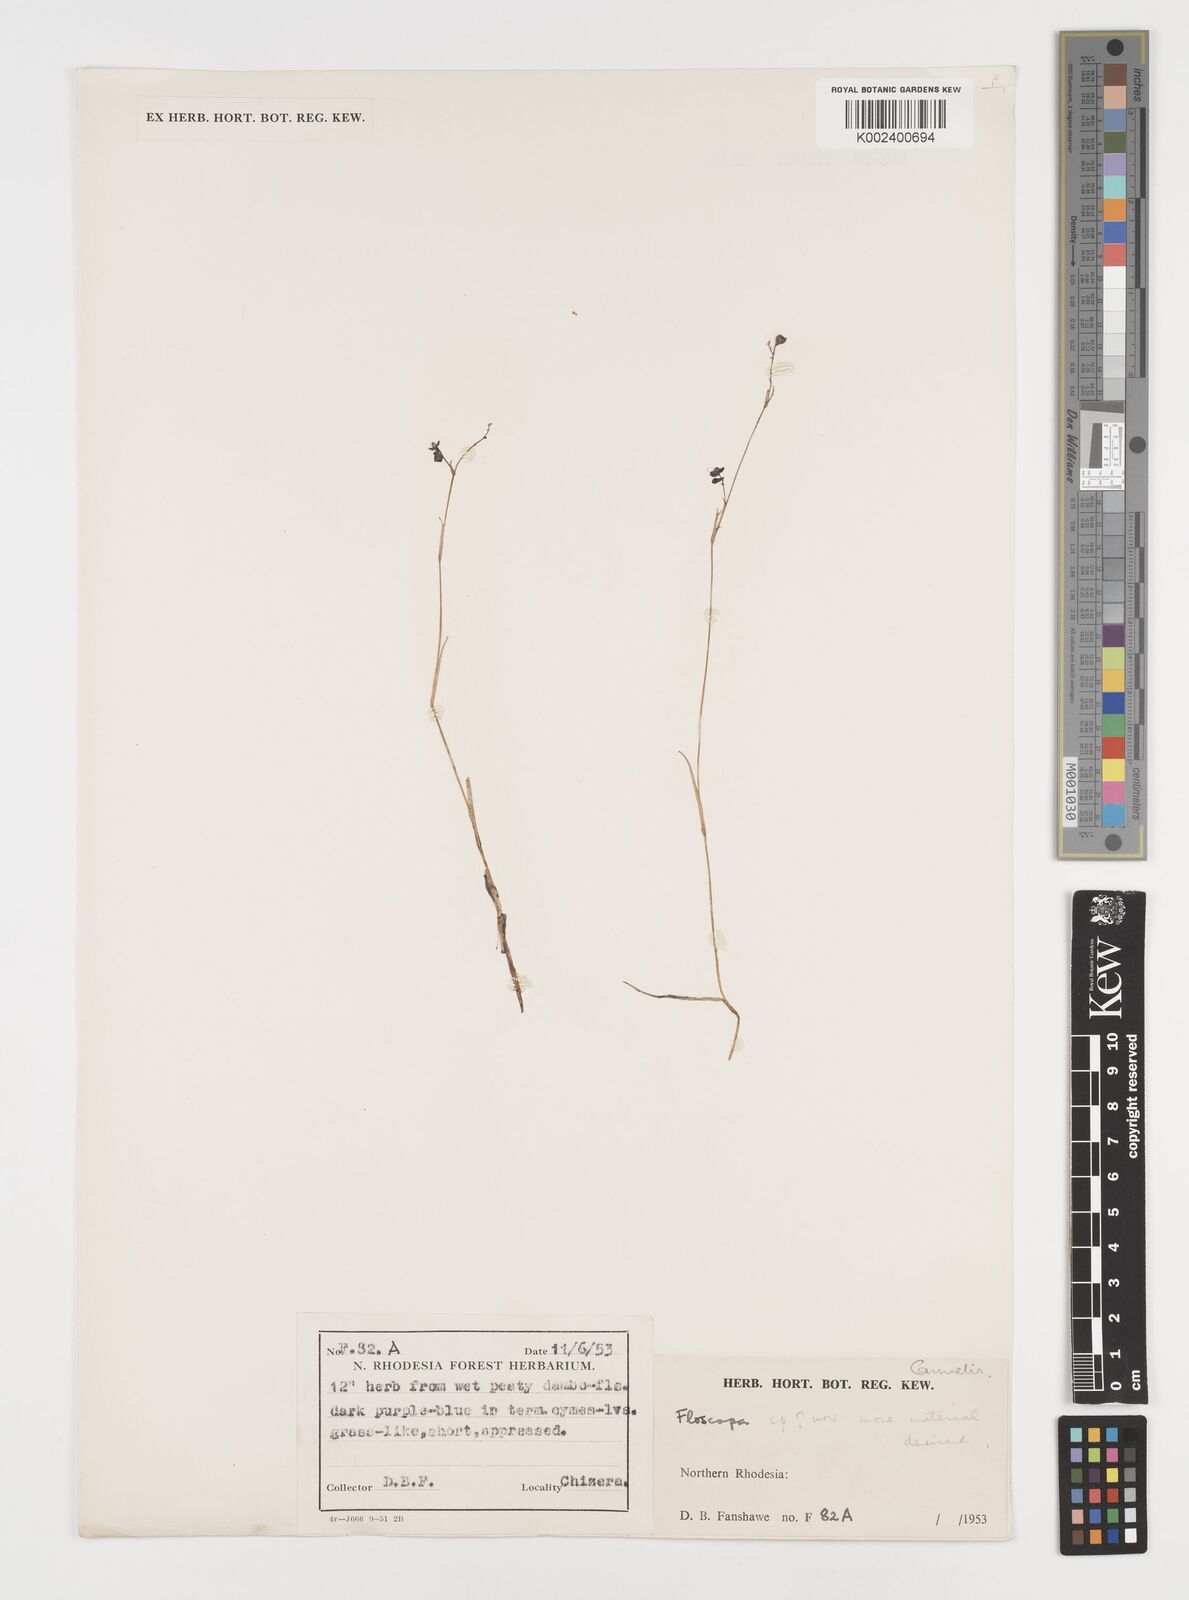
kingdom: Plantae
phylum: Tracheophyta
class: Liliopsida
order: Commelinales
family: Commelinaceae
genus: Floscopa
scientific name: Floscopa
